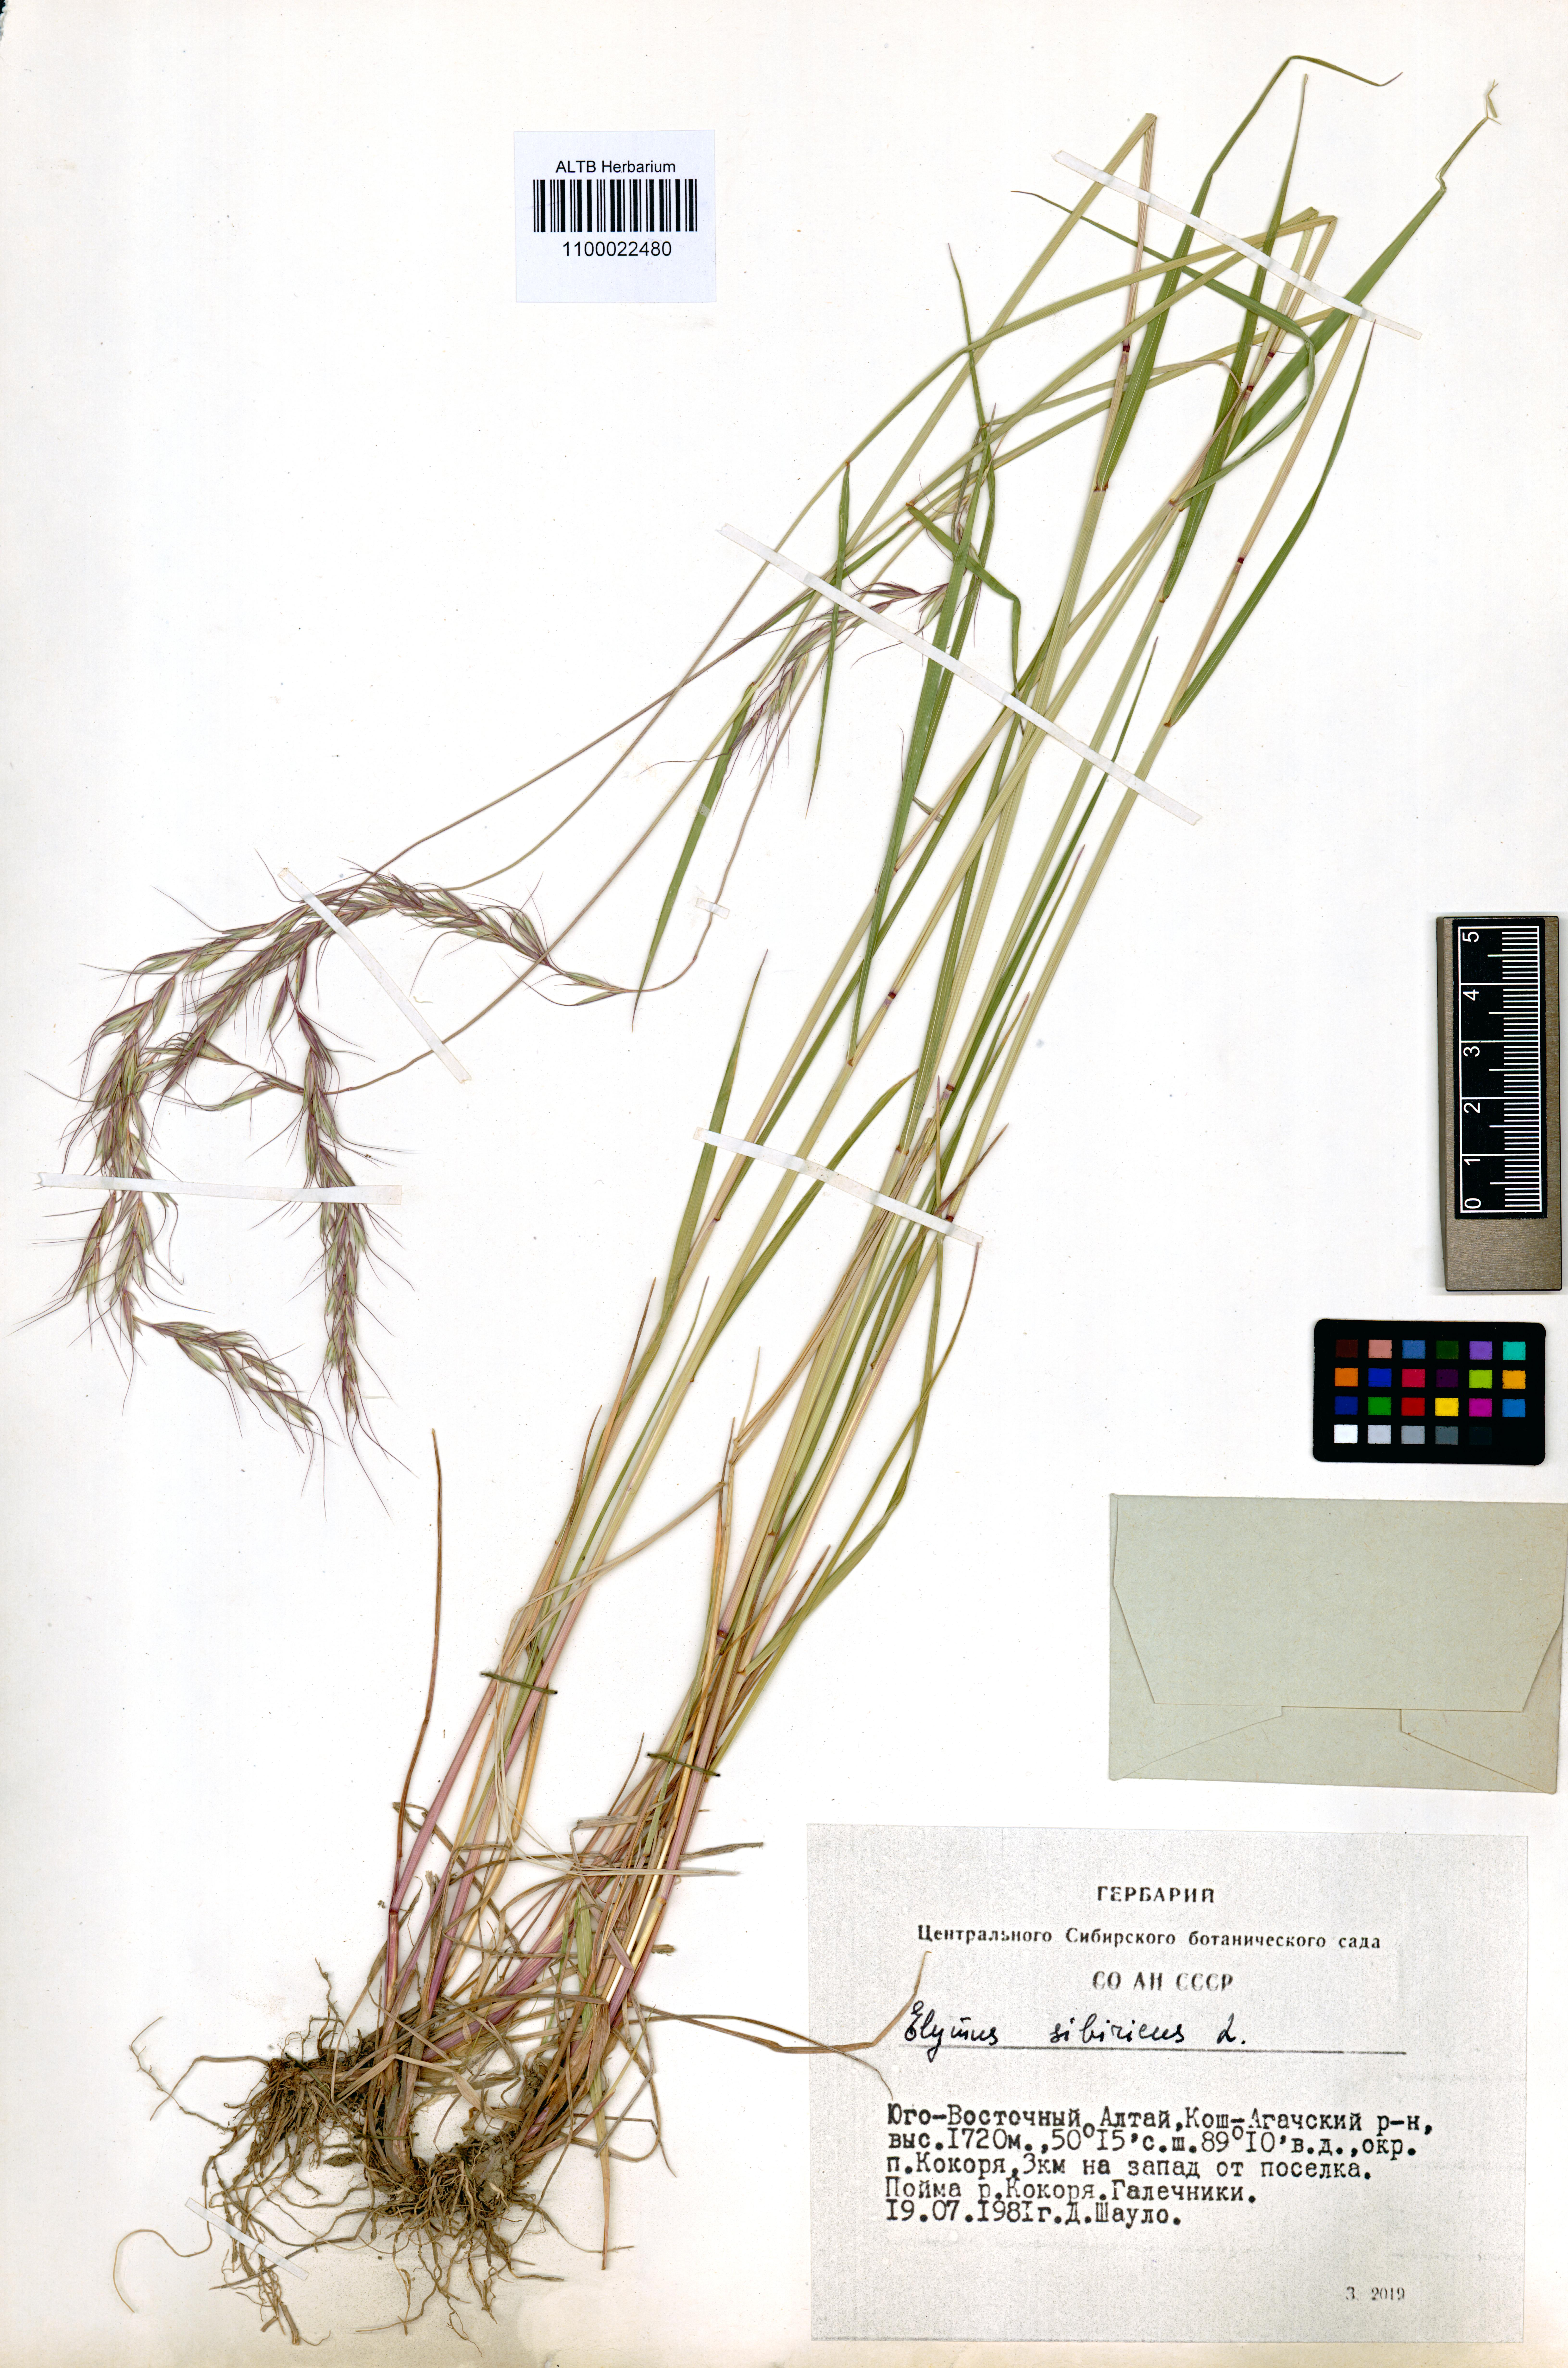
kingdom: Plantae
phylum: Tracheophyta
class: Liliopsida
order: Poales
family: Poaceae
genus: Elymus
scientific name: Elymus sibiricus
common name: Siberian wildrye
